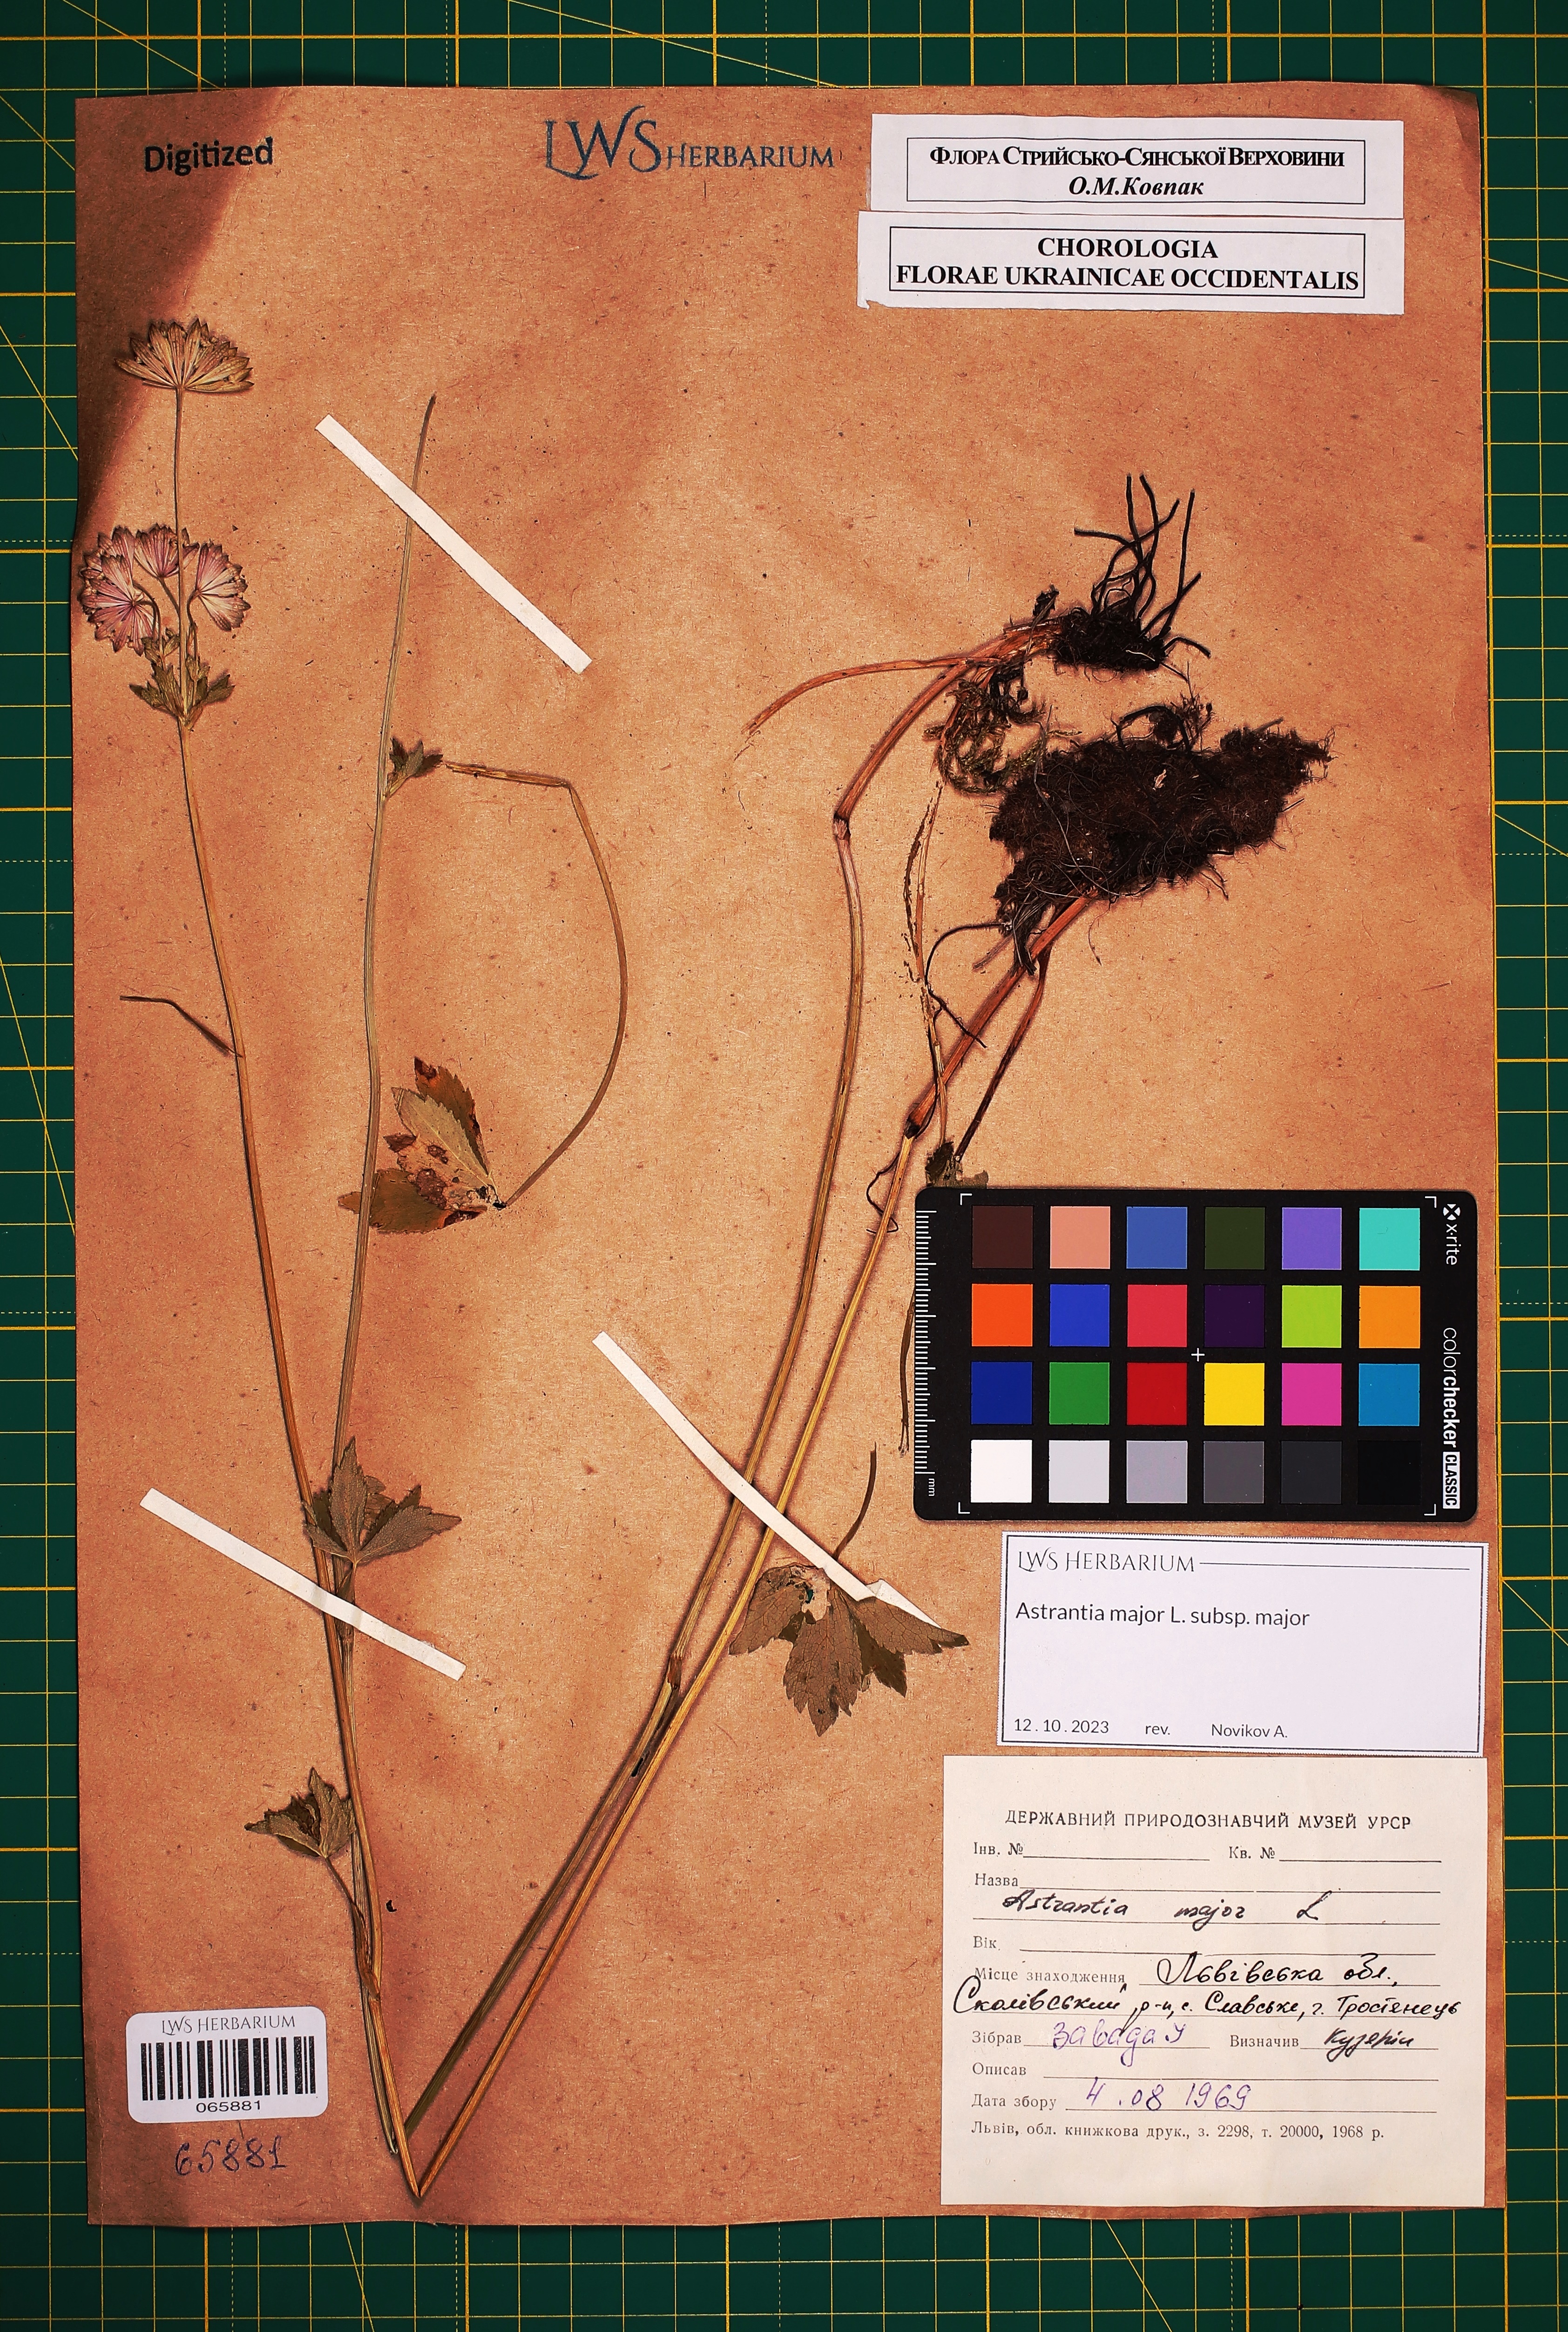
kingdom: Plantae
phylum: Tracheophyta
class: Magnoliopsida
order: Apiales
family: Apiaceae
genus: Astrantia
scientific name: Astrantia major
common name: Greater masterwort
